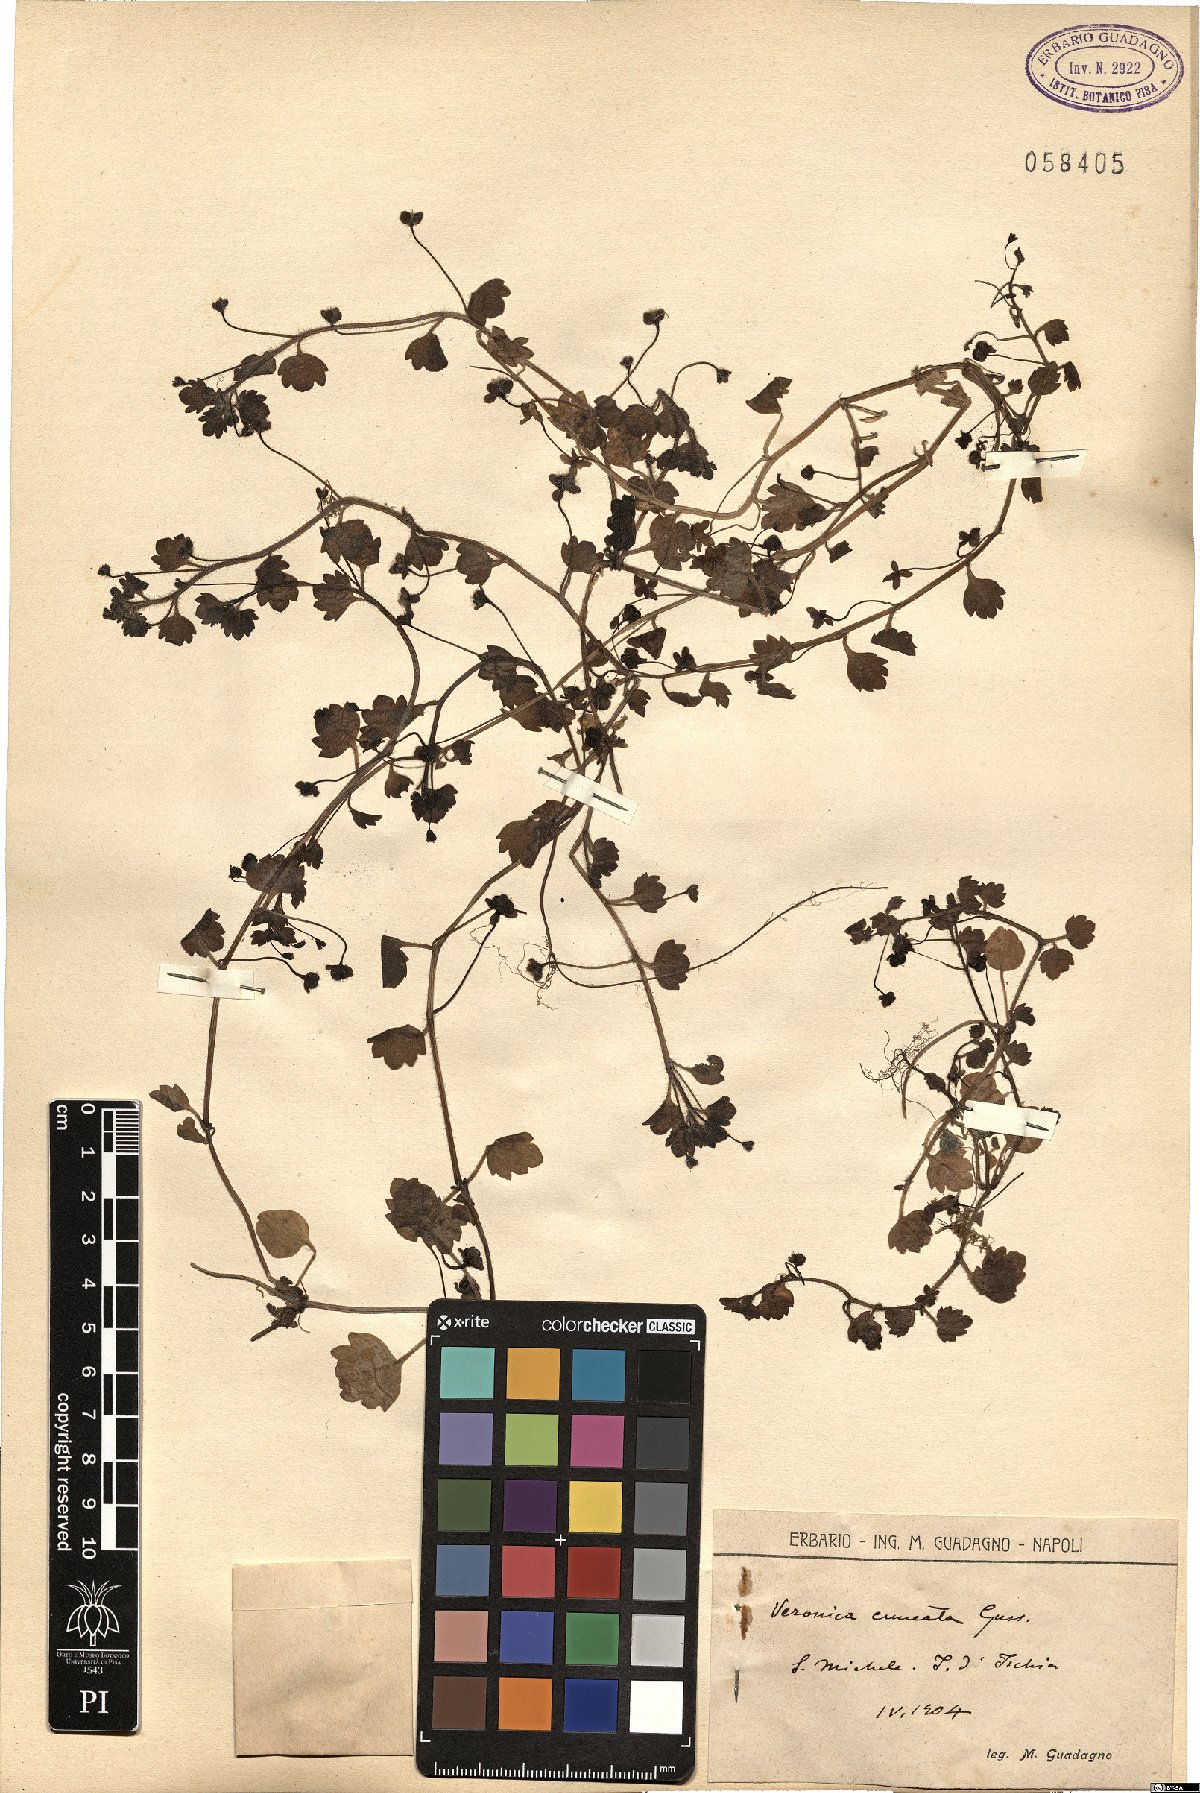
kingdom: Plantae
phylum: Tracheophyta
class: Magnoliopsida
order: Lamiales
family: Plantaginaceae
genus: Veronica
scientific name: Veronica cymbalaria
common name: Pale speedwell
